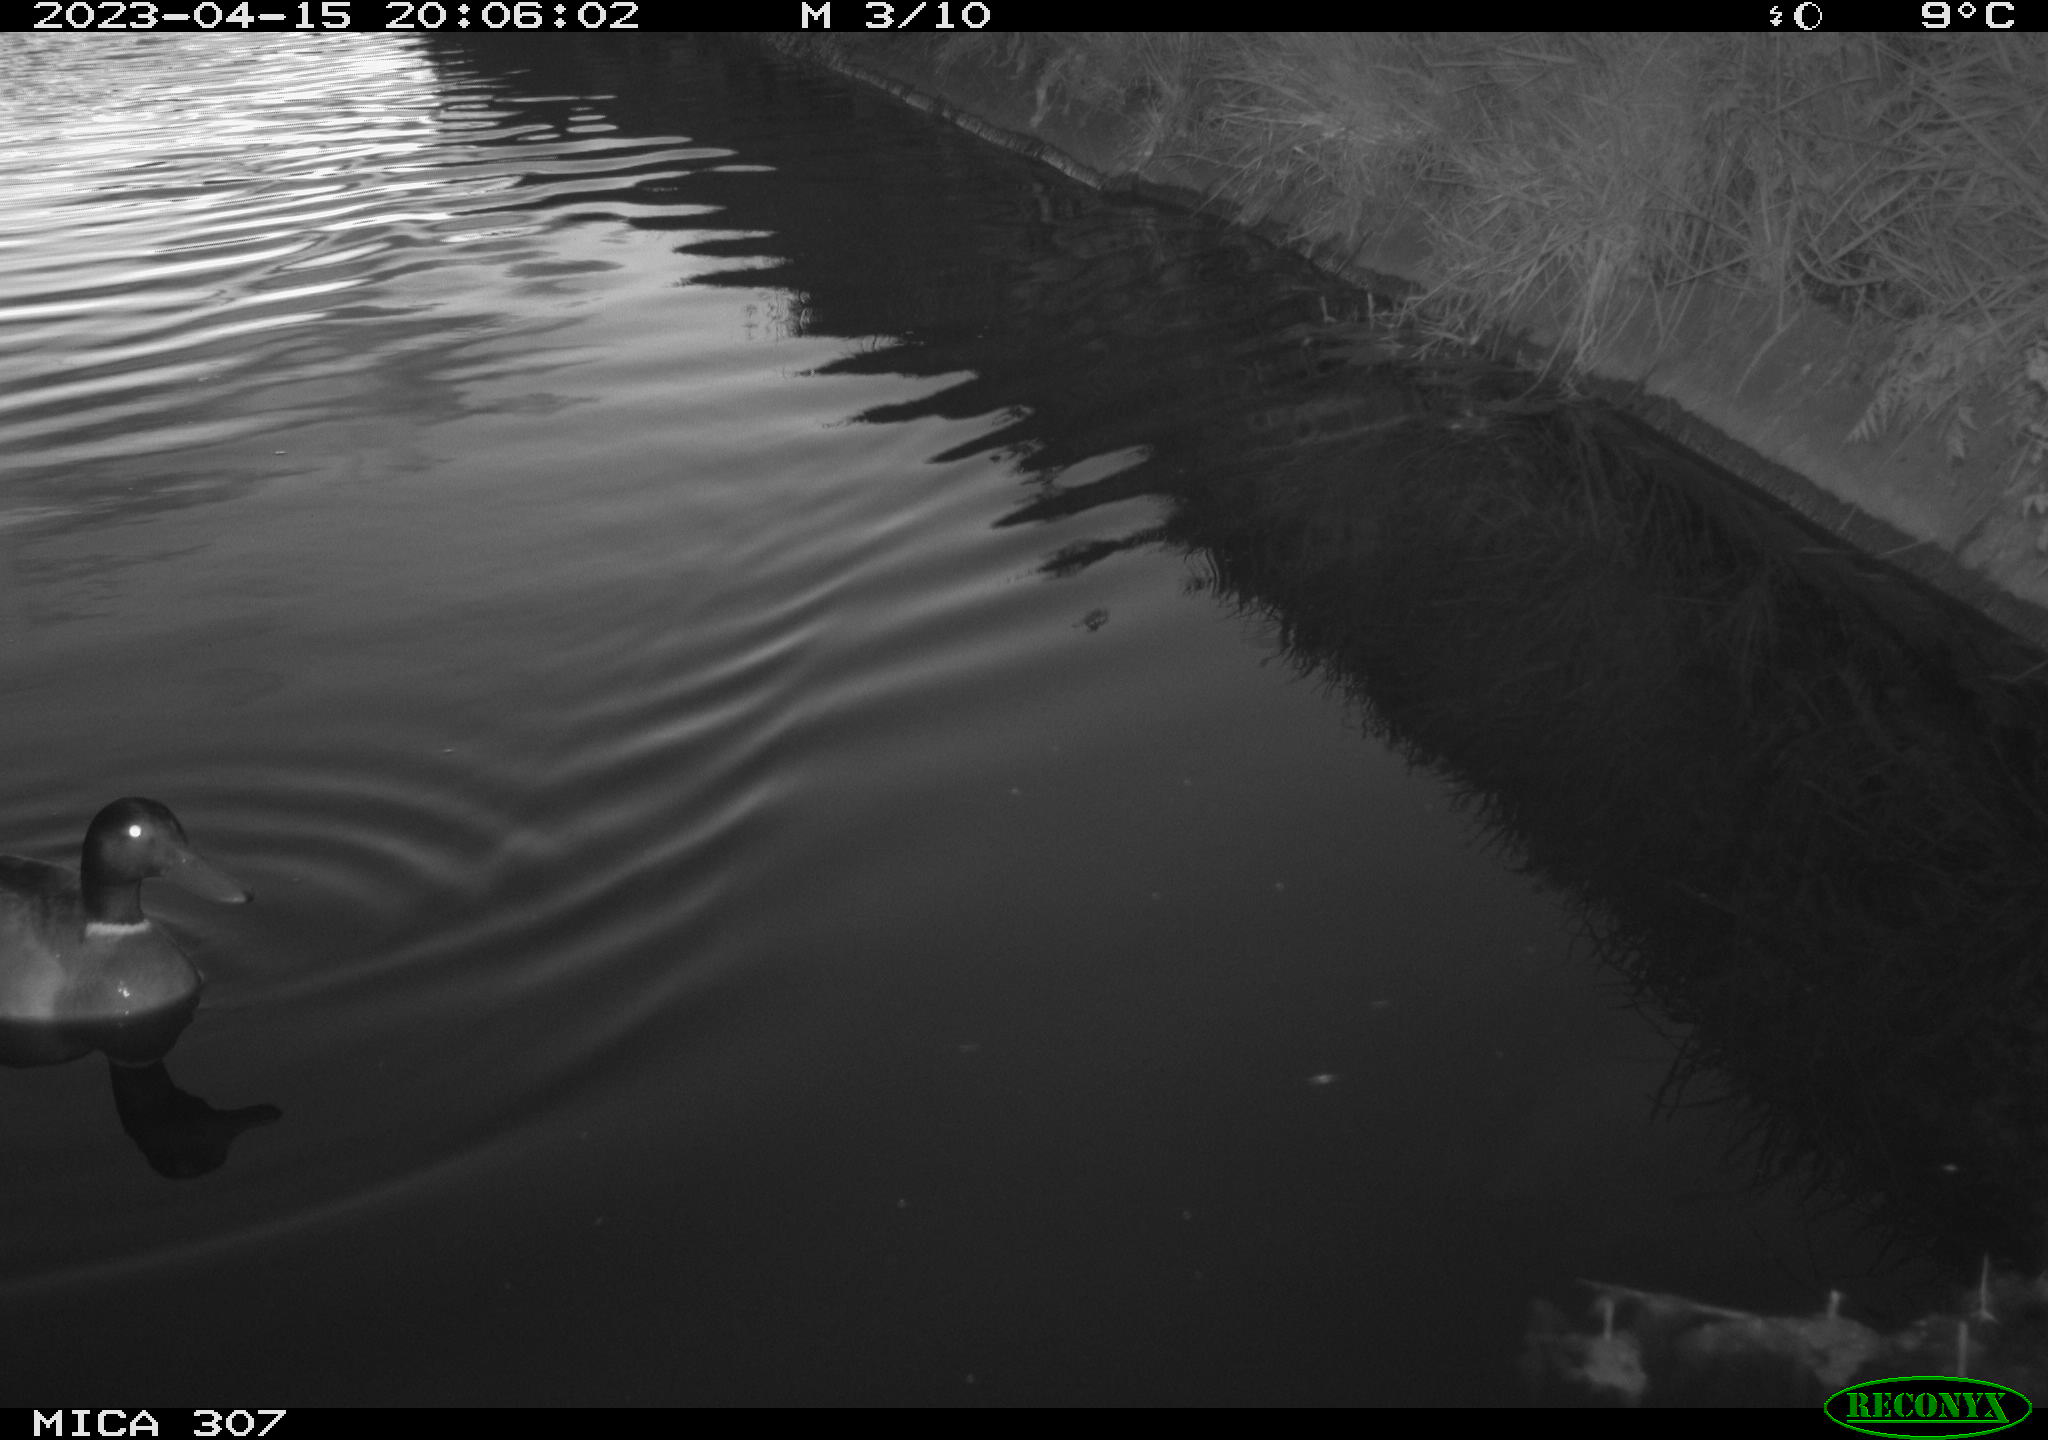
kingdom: Animalia
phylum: Chordata
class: Aves
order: Anseriformes
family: Anatidae
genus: Anas
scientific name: Anas
